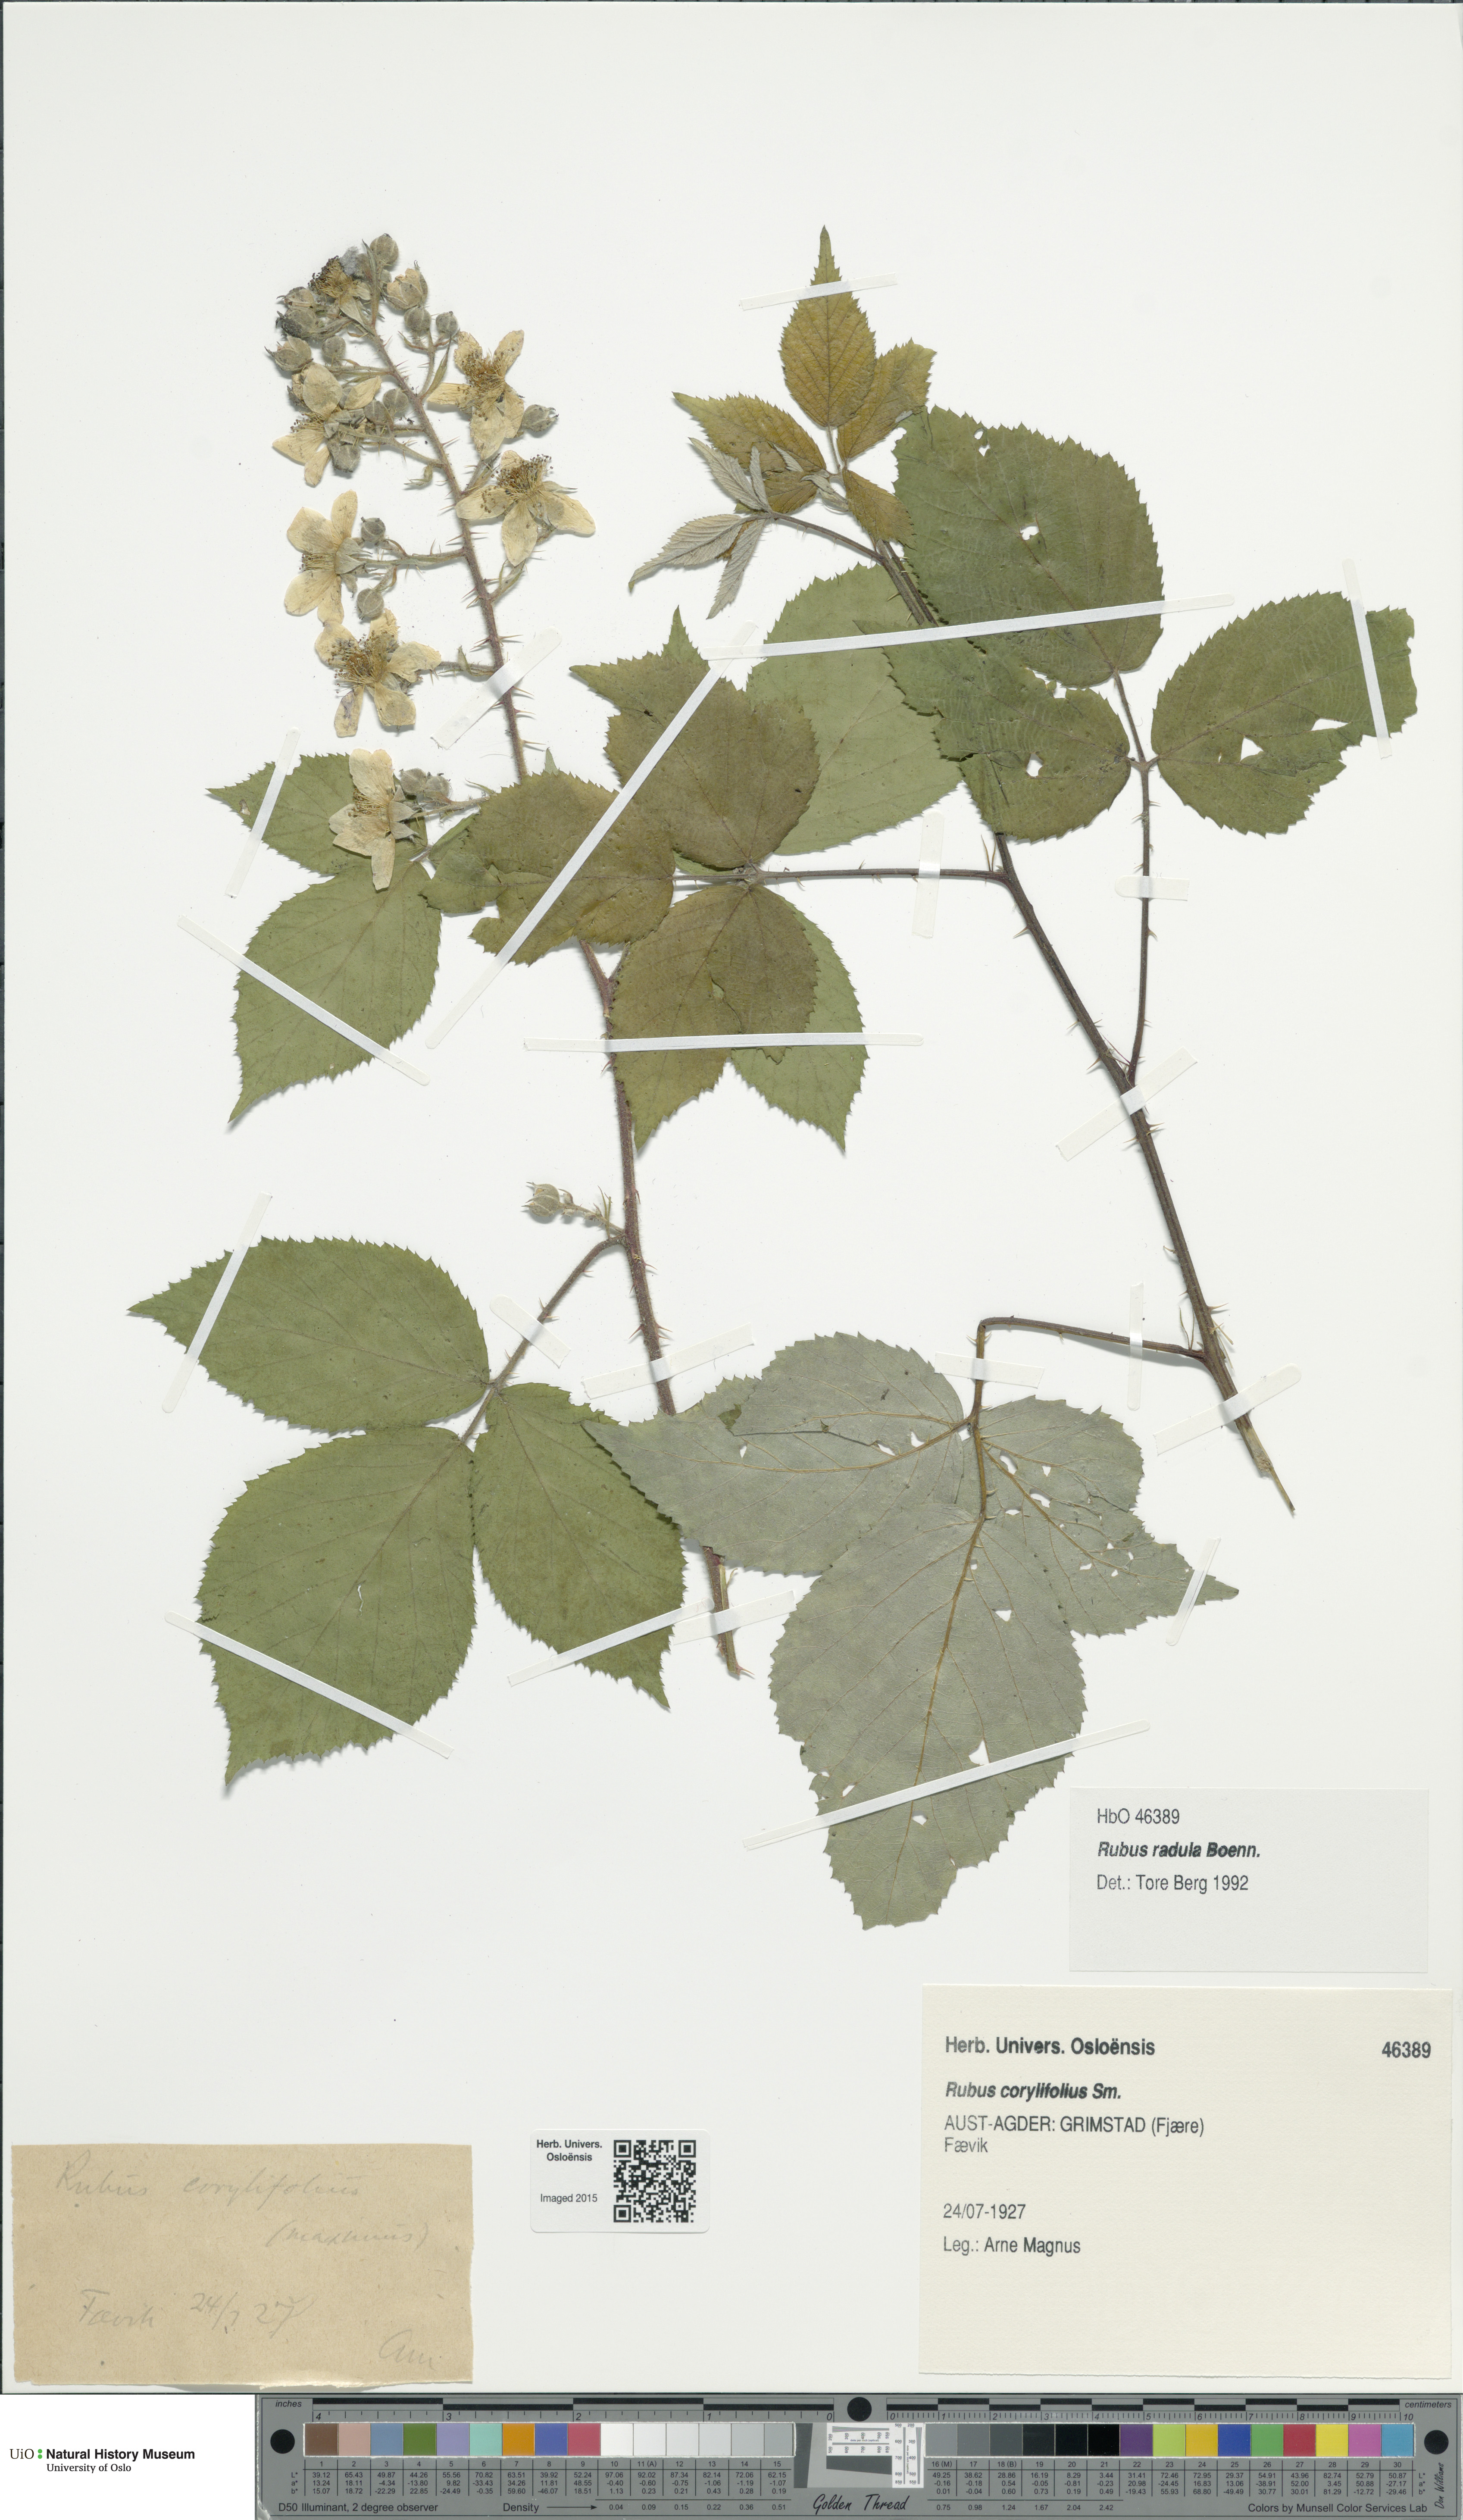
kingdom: Plantae
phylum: Tracheophyta
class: Magnoliopsida
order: Rosales
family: Rosaceae
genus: Rubus
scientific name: Rubus radula
